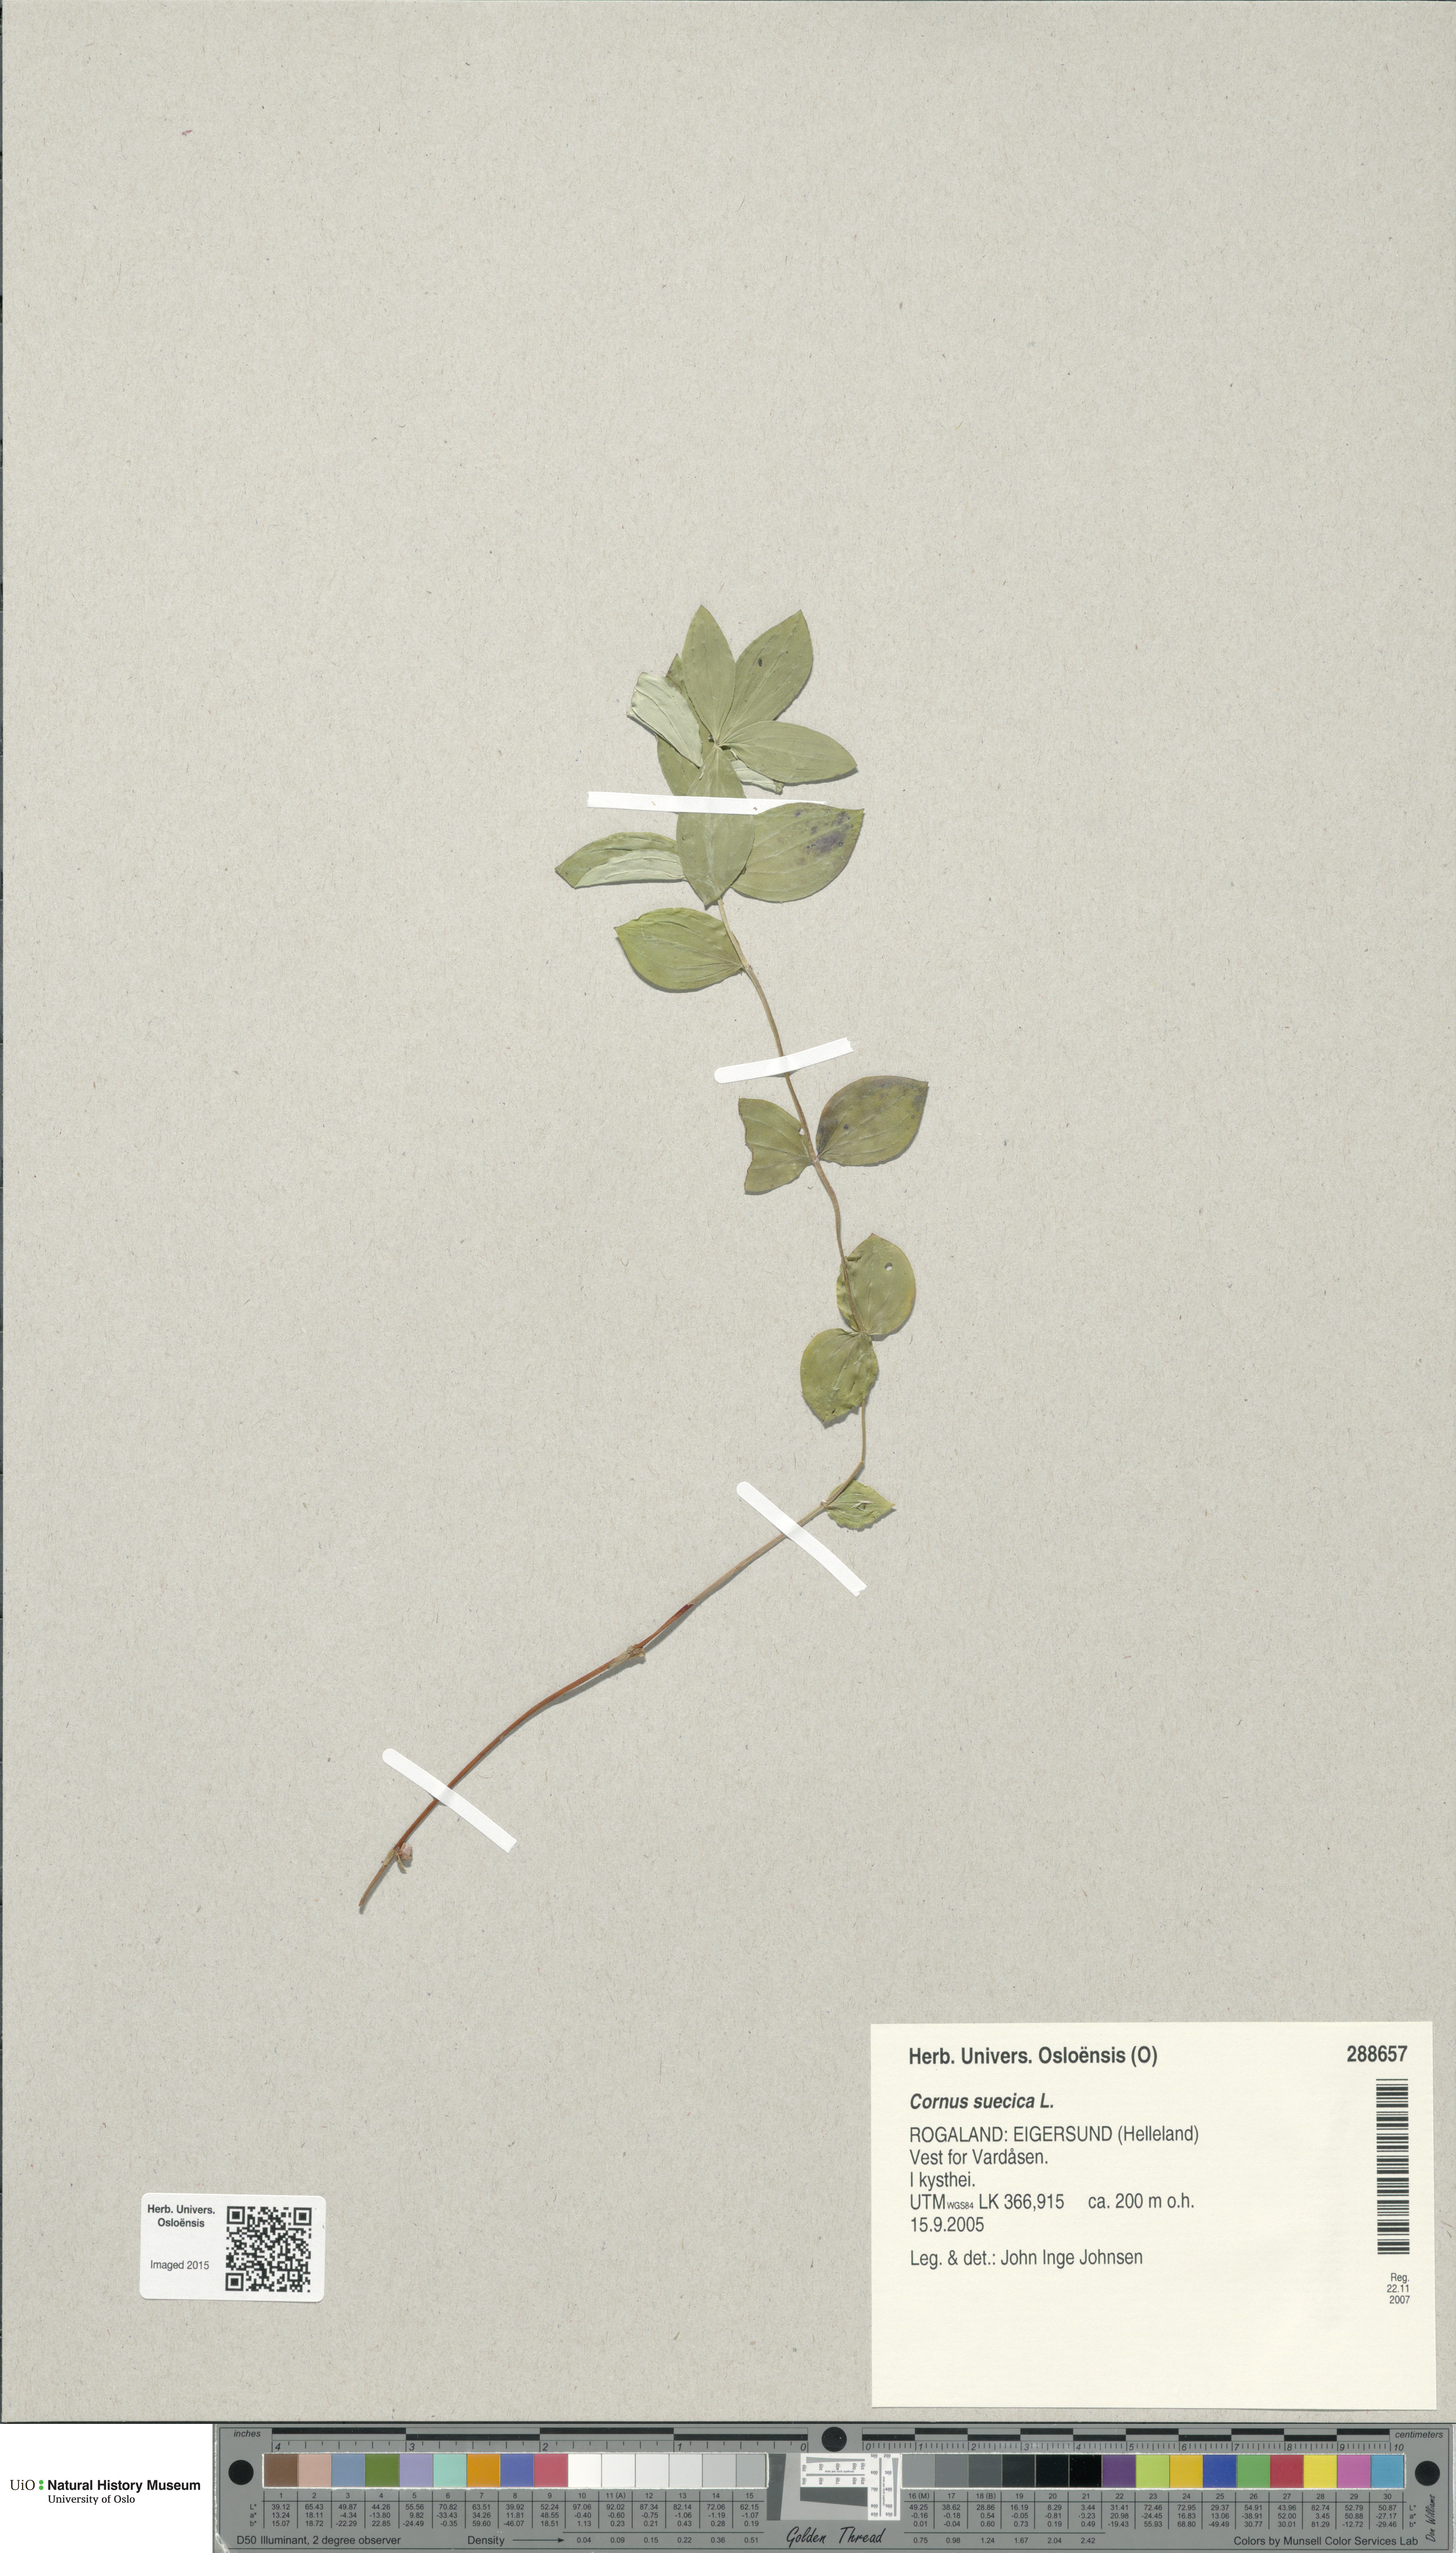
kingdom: Plantae
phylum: Tracheophyta
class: Magnoliopsida
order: Cornales
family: Cornaceae
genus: Cornus
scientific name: Cornus suecica
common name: Dwarf cornel
